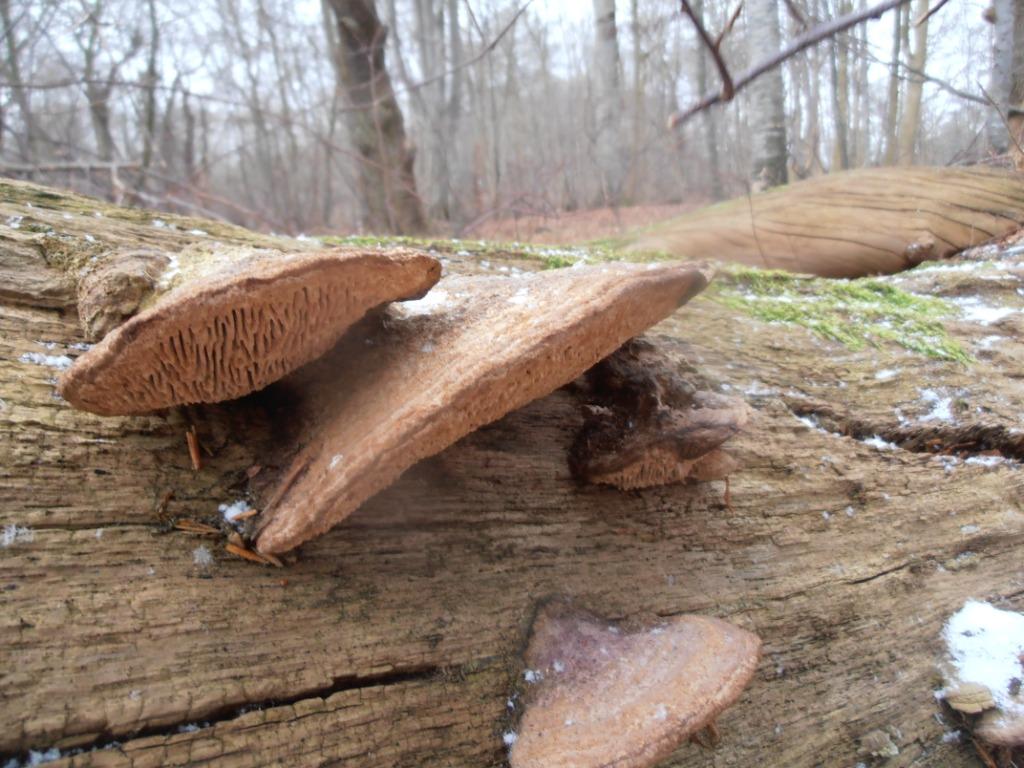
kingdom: Fungi
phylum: Basidiomycota
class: Agaricomycetes
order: Polyporales
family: Fomitopsidaceae
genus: Daedalea
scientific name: Daedalea quercina
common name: ege-labyrintsvamp
